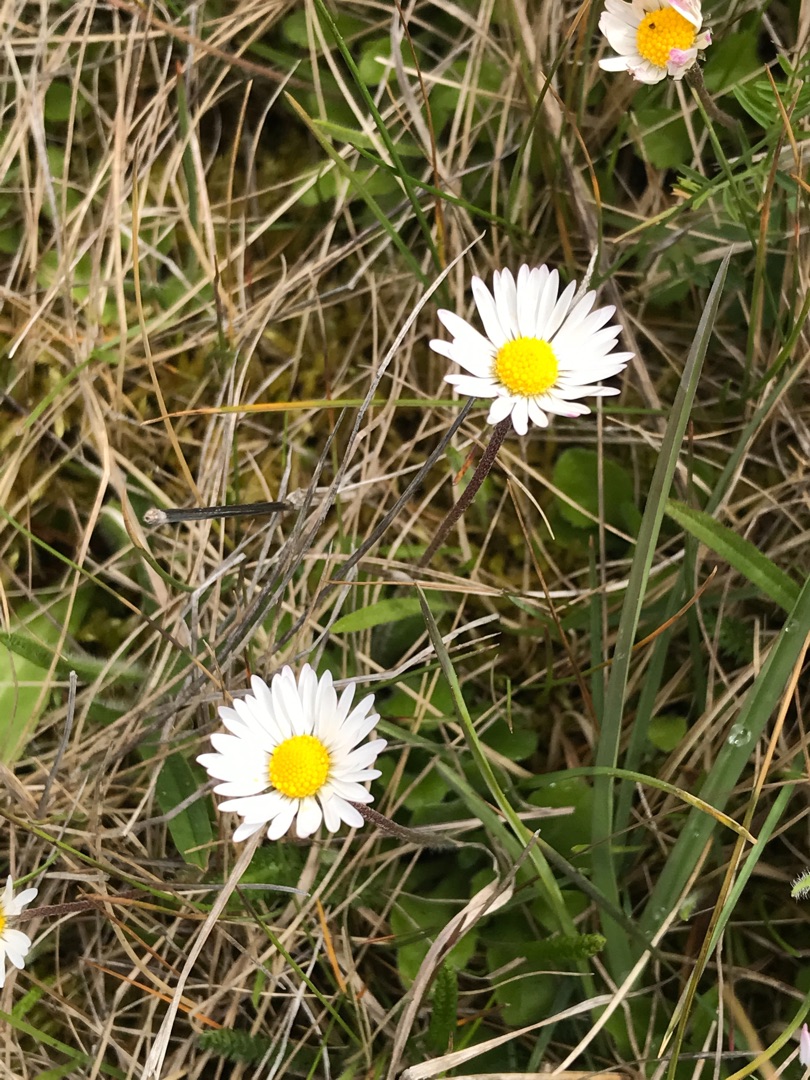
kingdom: Plantae
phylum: Tracheophyta
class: Magnoliopsida
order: Asterales
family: Asteraceae
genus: Bellis
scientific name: Bellis perennis
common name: Tusindfryd
